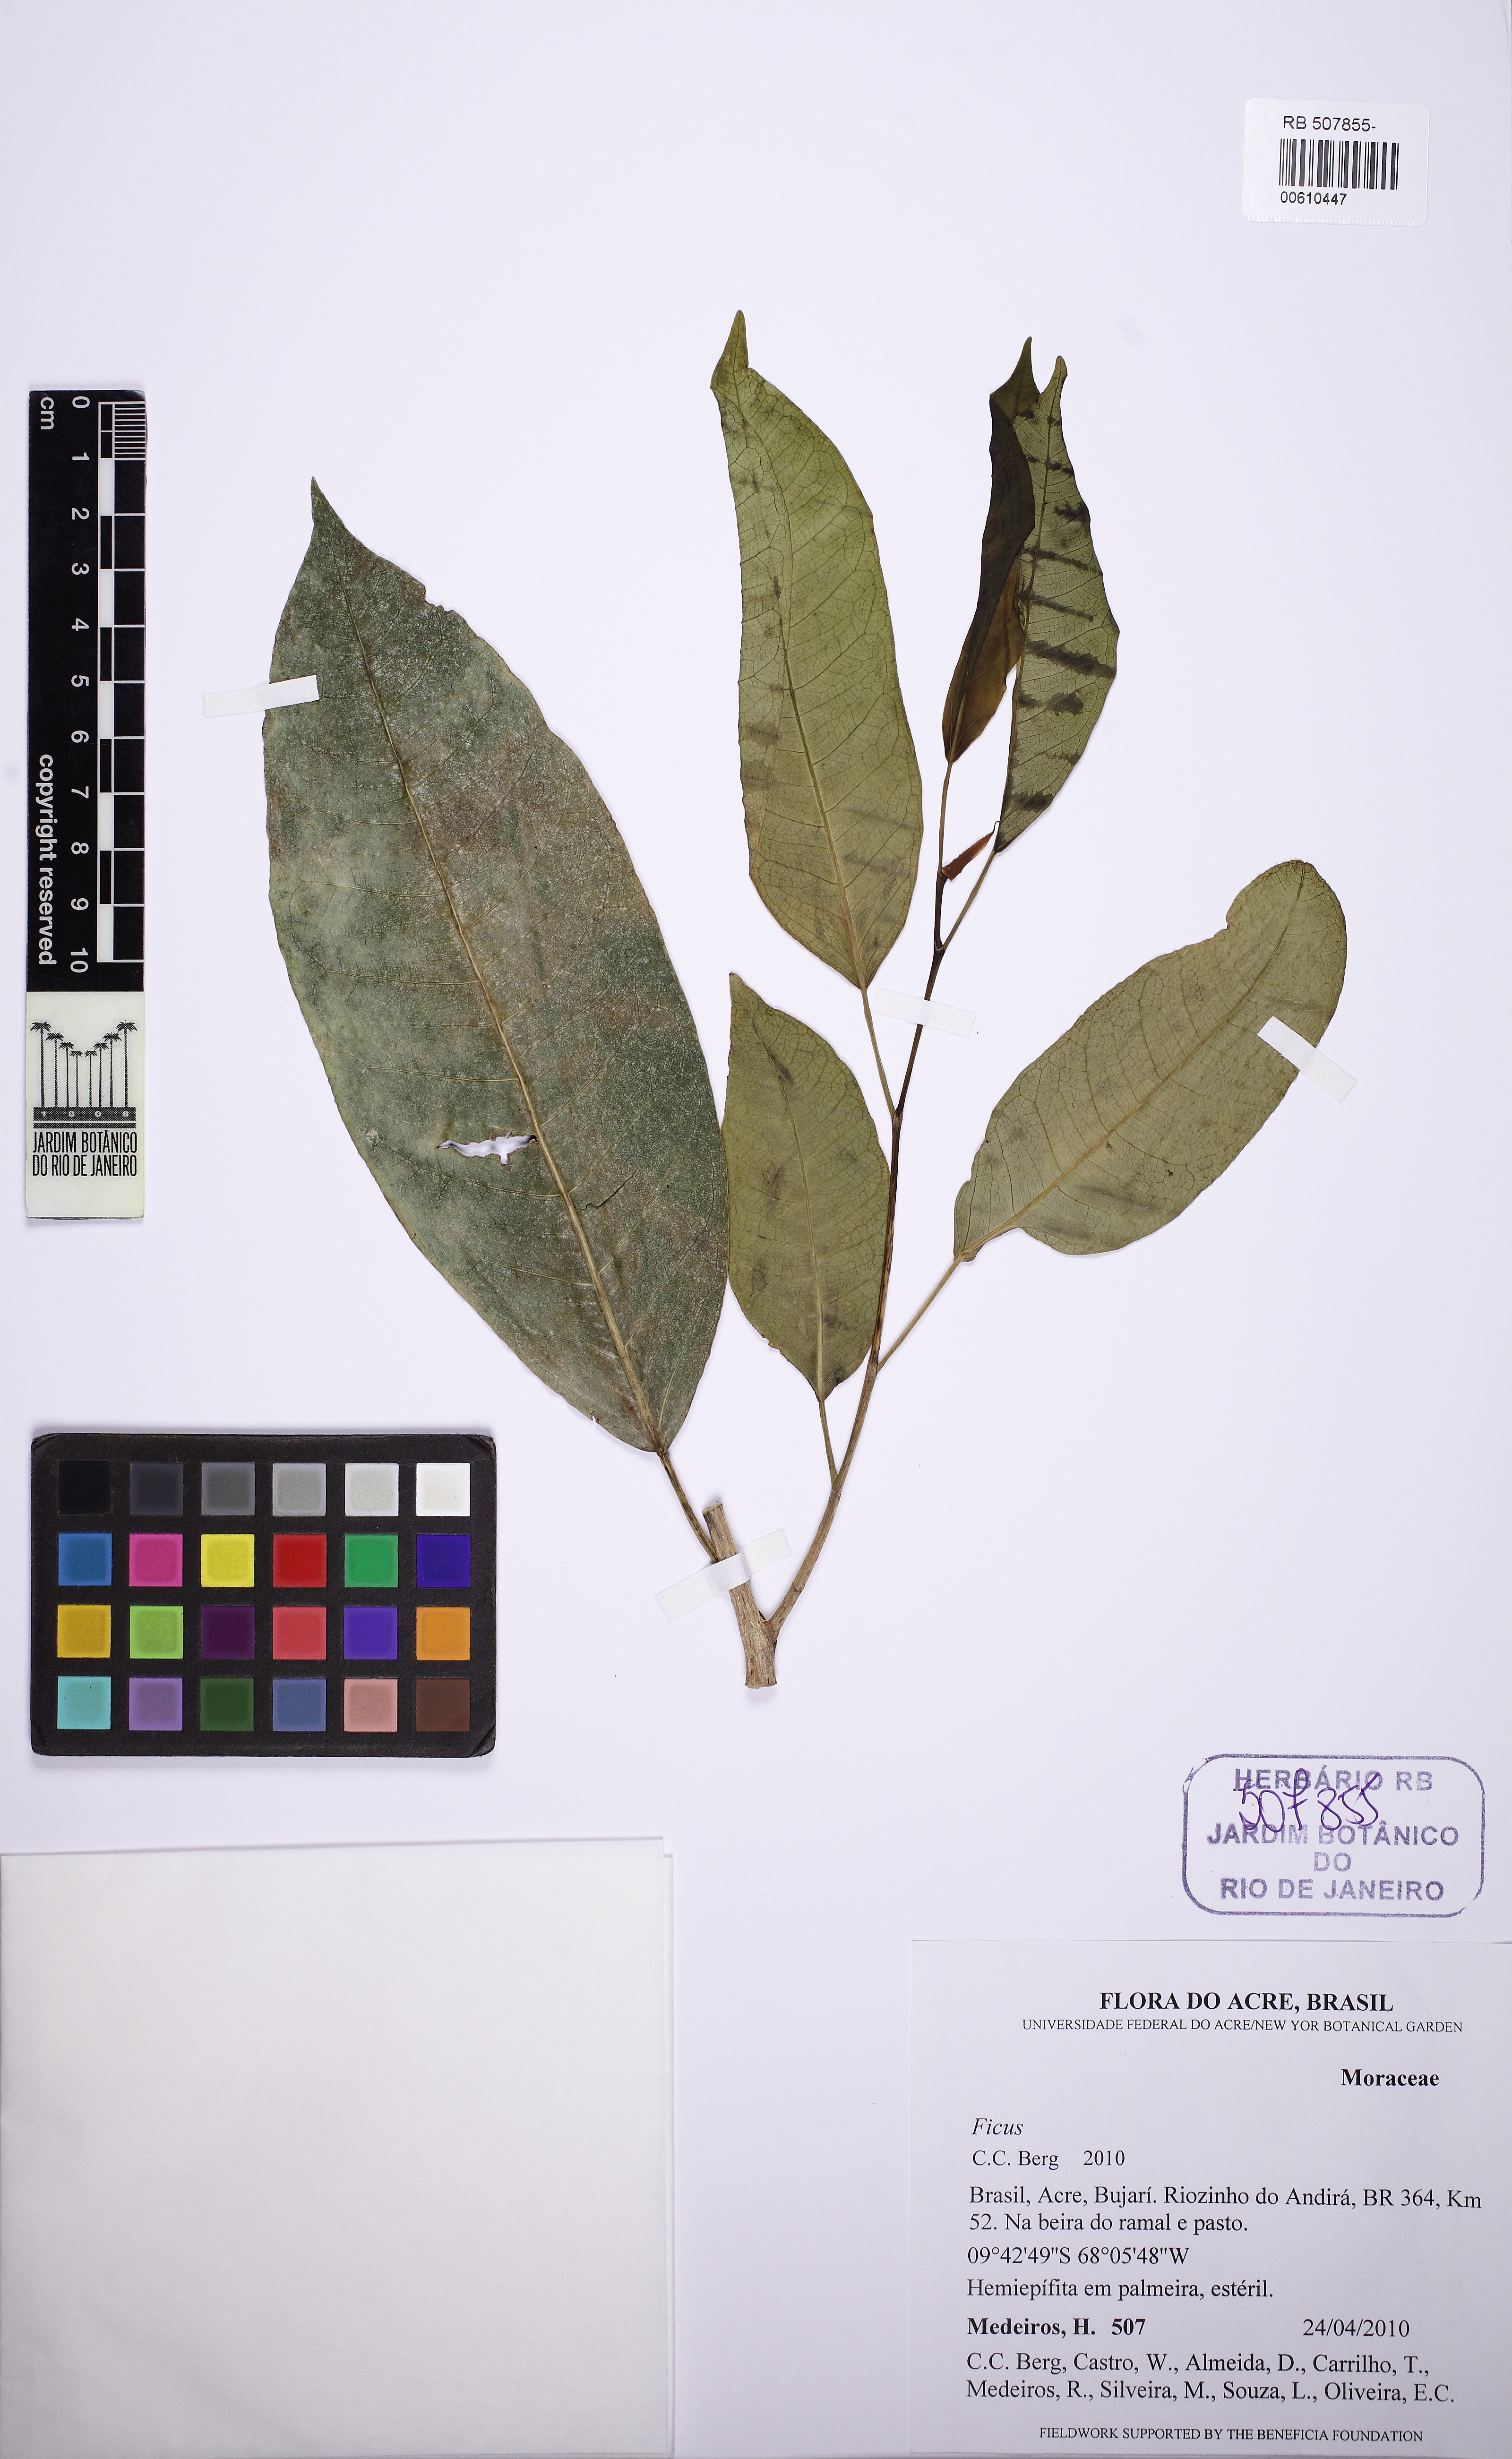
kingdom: Plantae
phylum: Tracheophyta
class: Magnoliopsida
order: Rosales
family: Moraceae
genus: Ficus
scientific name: Ficus
